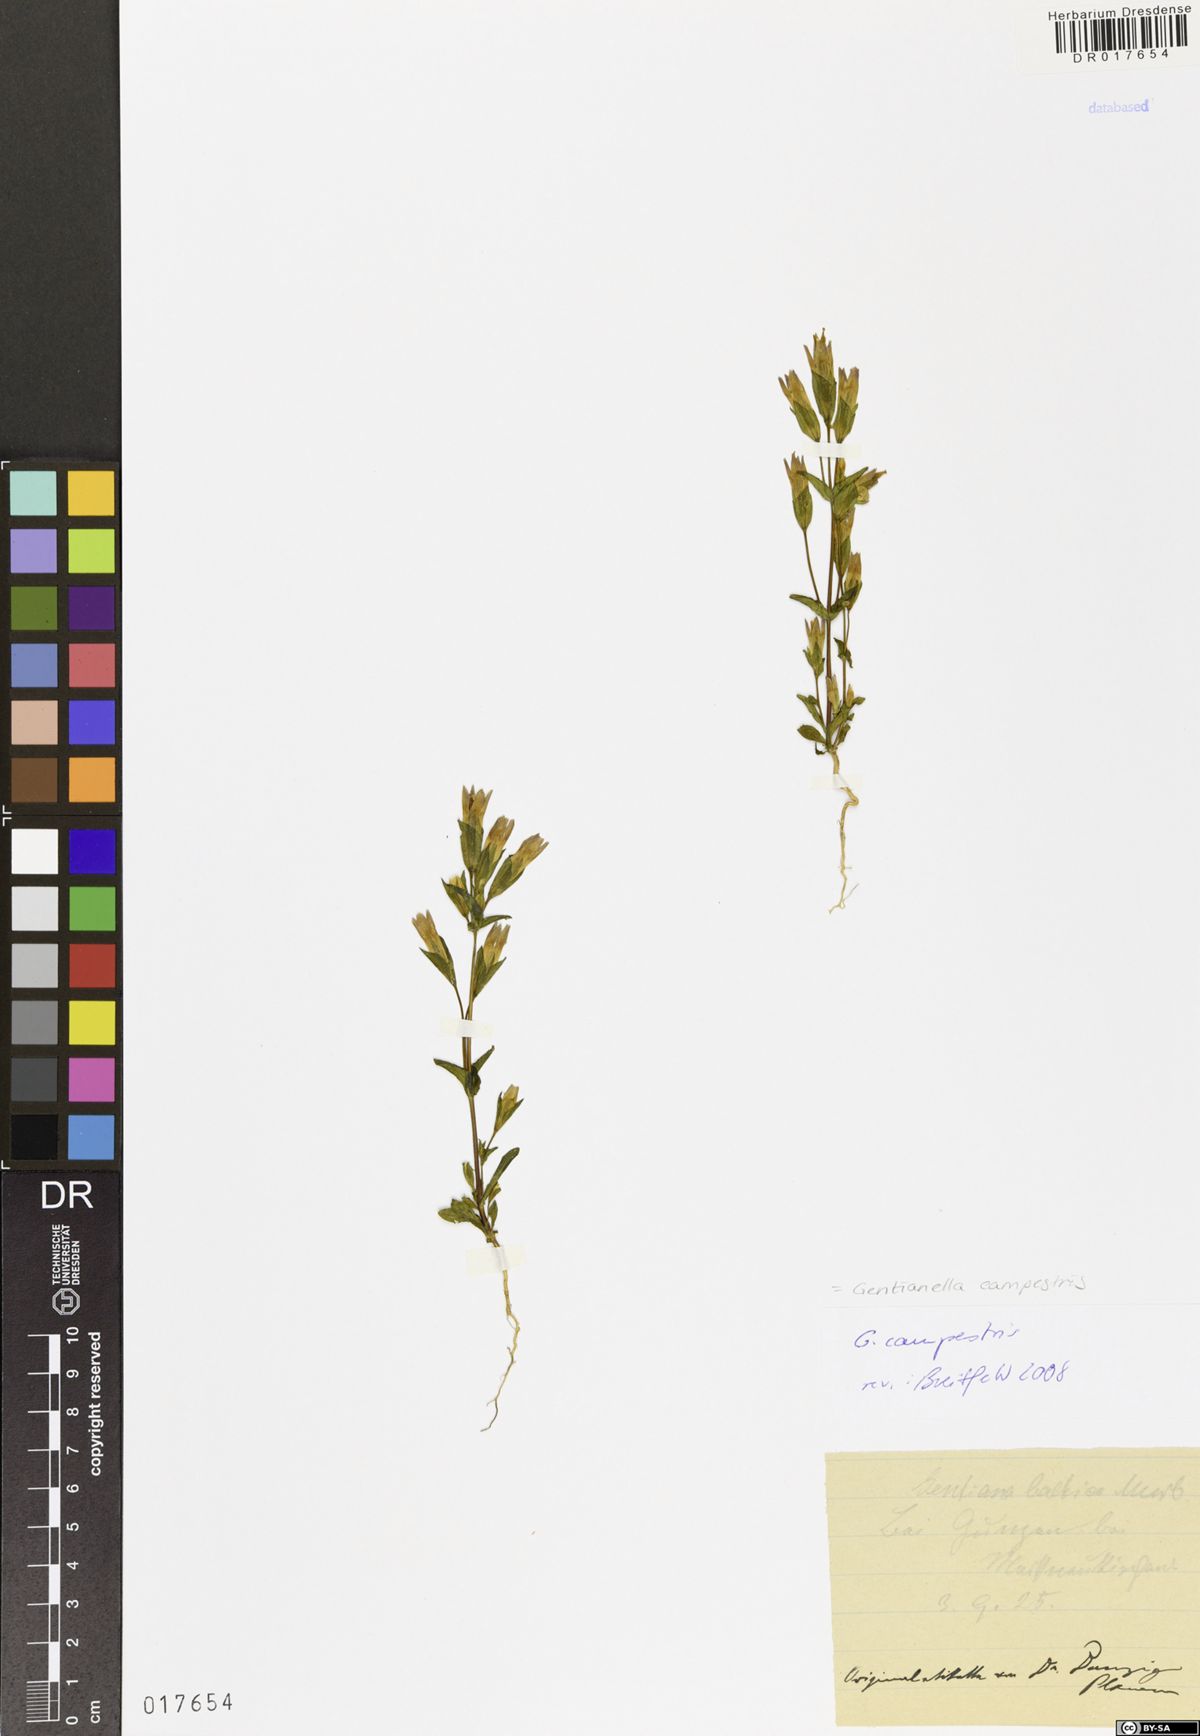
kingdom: Plantae
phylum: Tracheophyta
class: Magnoliopsida
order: Gentianales
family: Gentianaceae
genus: Gentianella
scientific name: Gentianella campestris
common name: Field gentian
